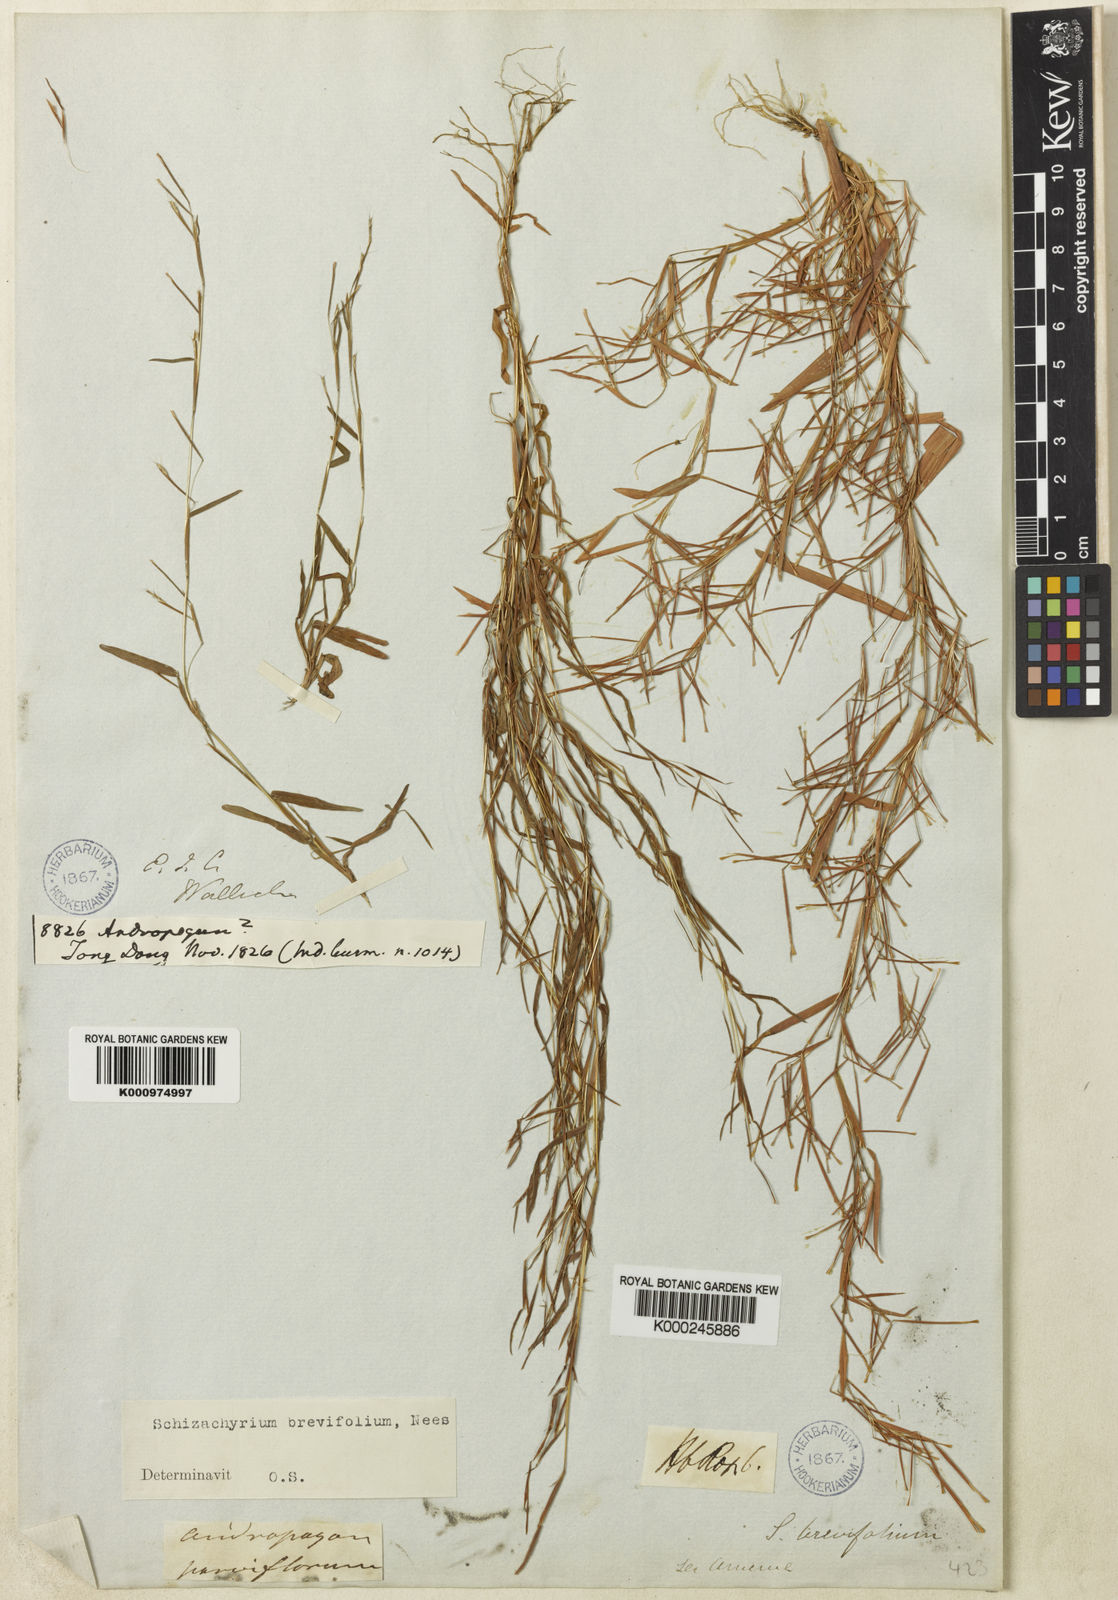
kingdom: Plantae
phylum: Tracheophyta
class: Liliopsida
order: Poales
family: Poaceae
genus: Schizachyrium
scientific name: Schizachyrium
